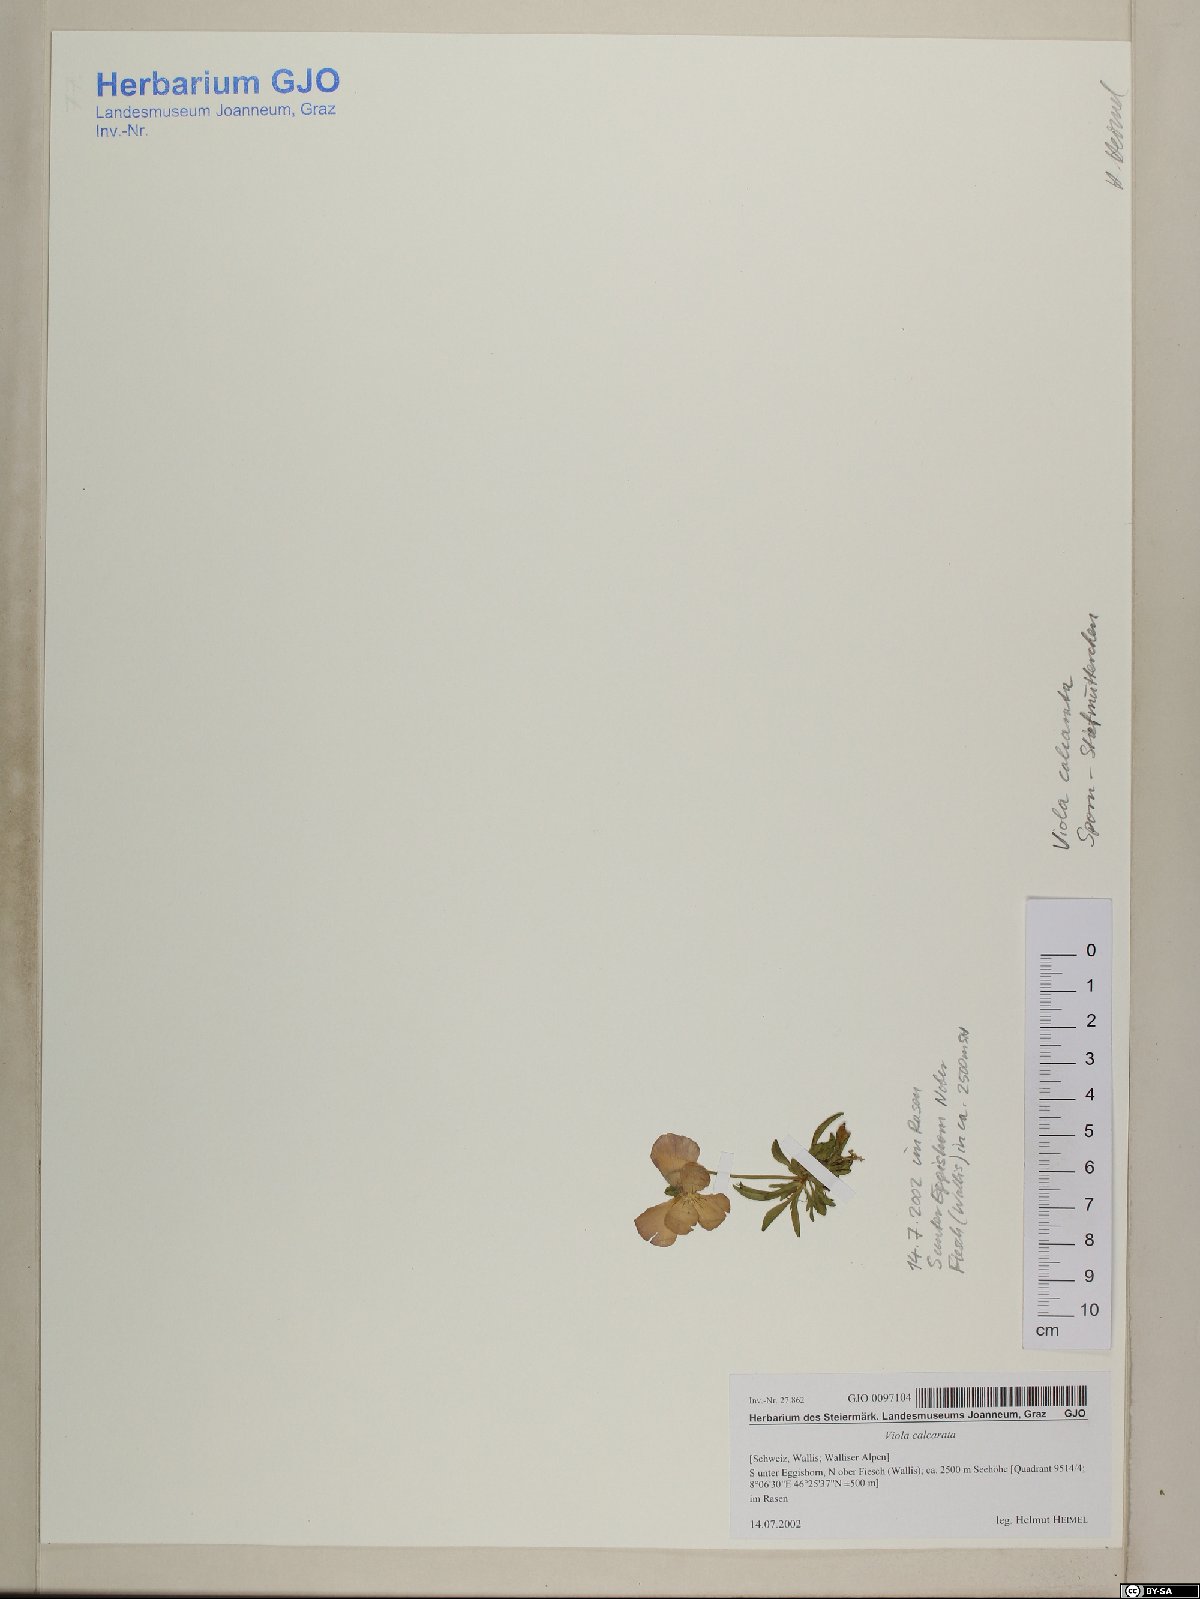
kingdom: Plantae
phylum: Tracheophyta
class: Magnoliopsida
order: Malpighiales
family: Violaceae
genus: Viola
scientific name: Viola calcarata
